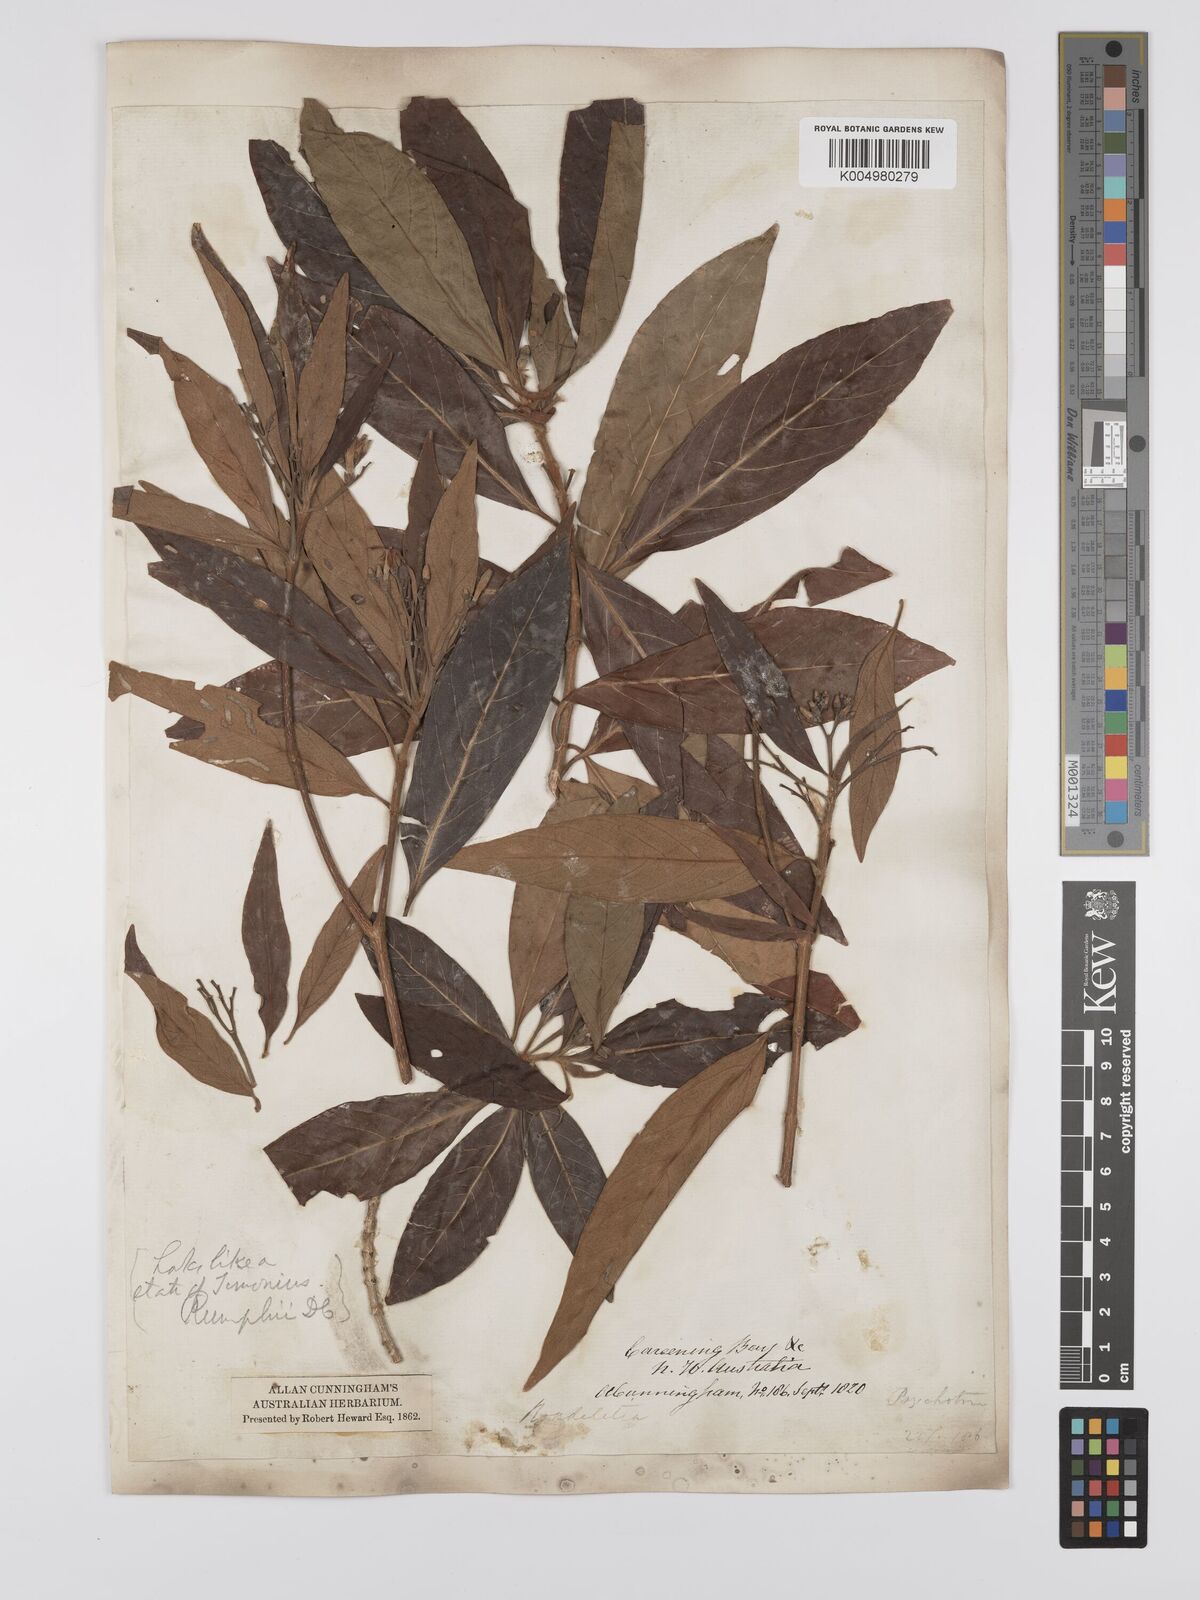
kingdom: Plantae
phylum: Tracheophyta
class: Magnoliopsida
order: Gentianales
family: Rubiaceae
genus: Timonius
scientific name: Timonius timon
